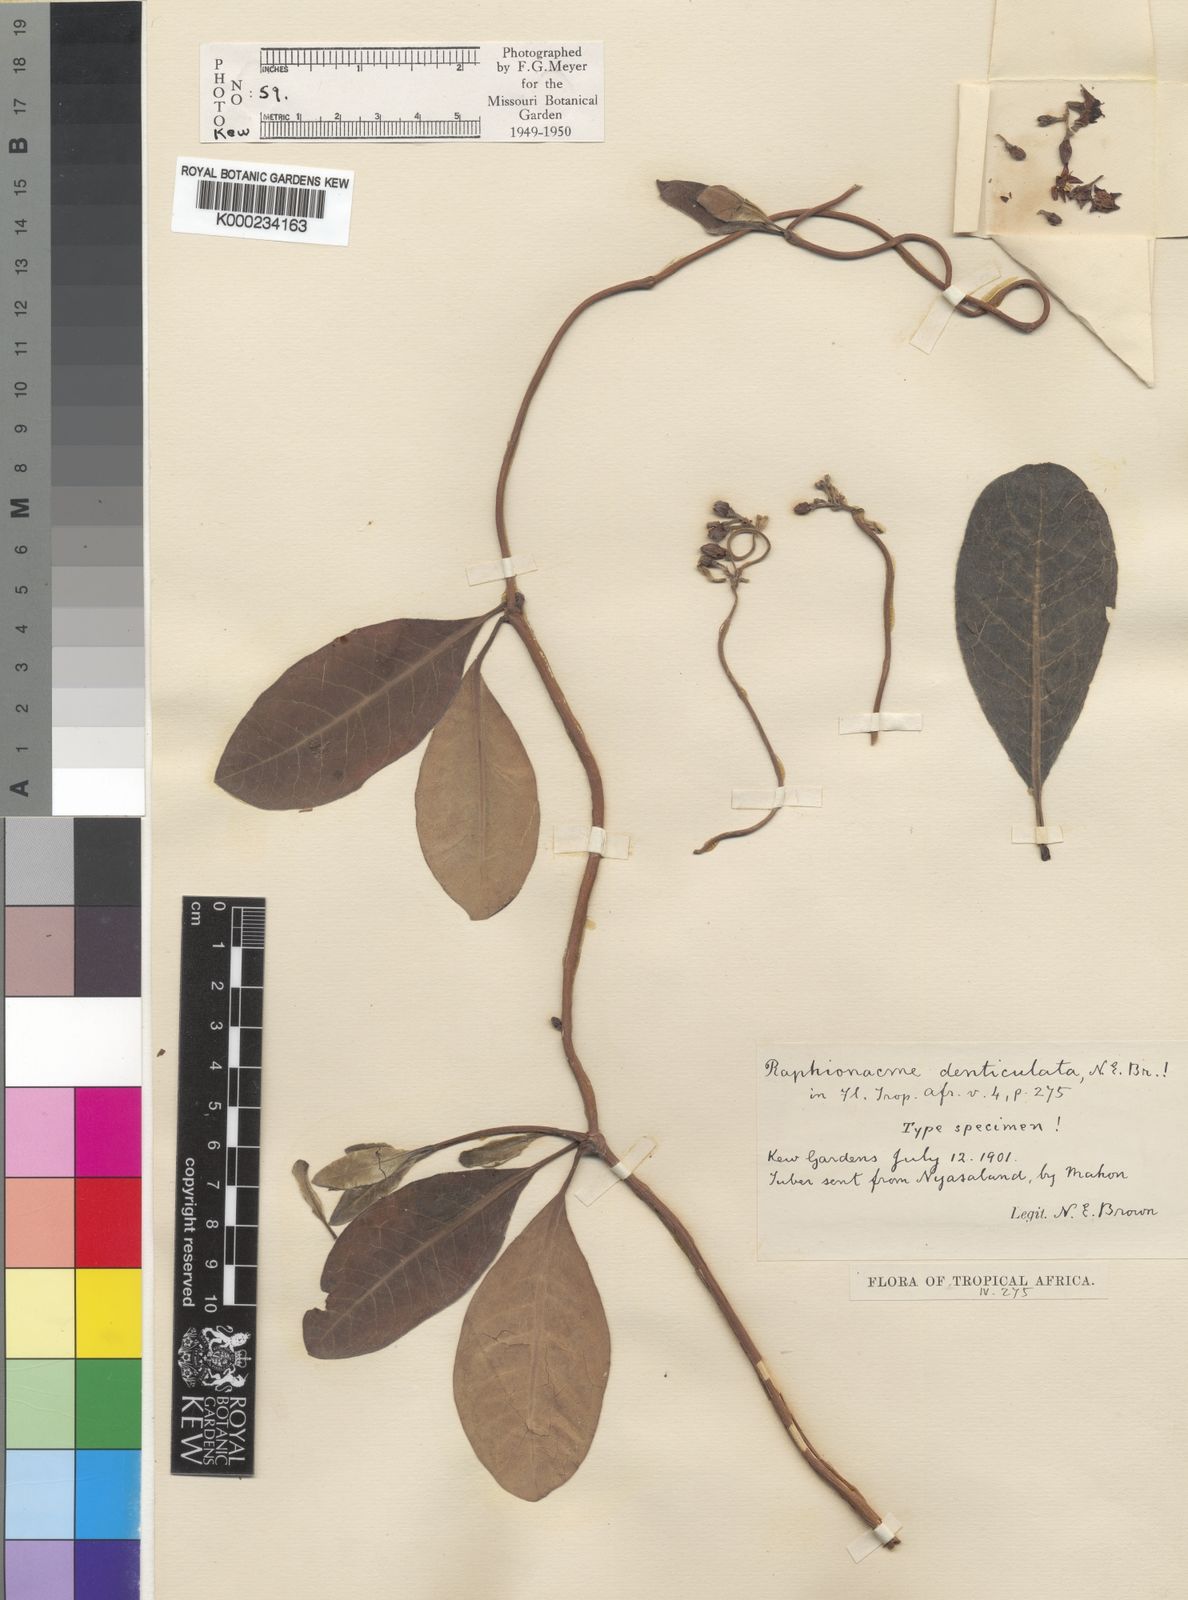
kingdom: Plantae
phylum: Tracheophyta
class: Magnoliopsida
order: Gentianales
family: Apocynaceae
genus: Raphionacme
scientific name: Raphionacme welwitschii
